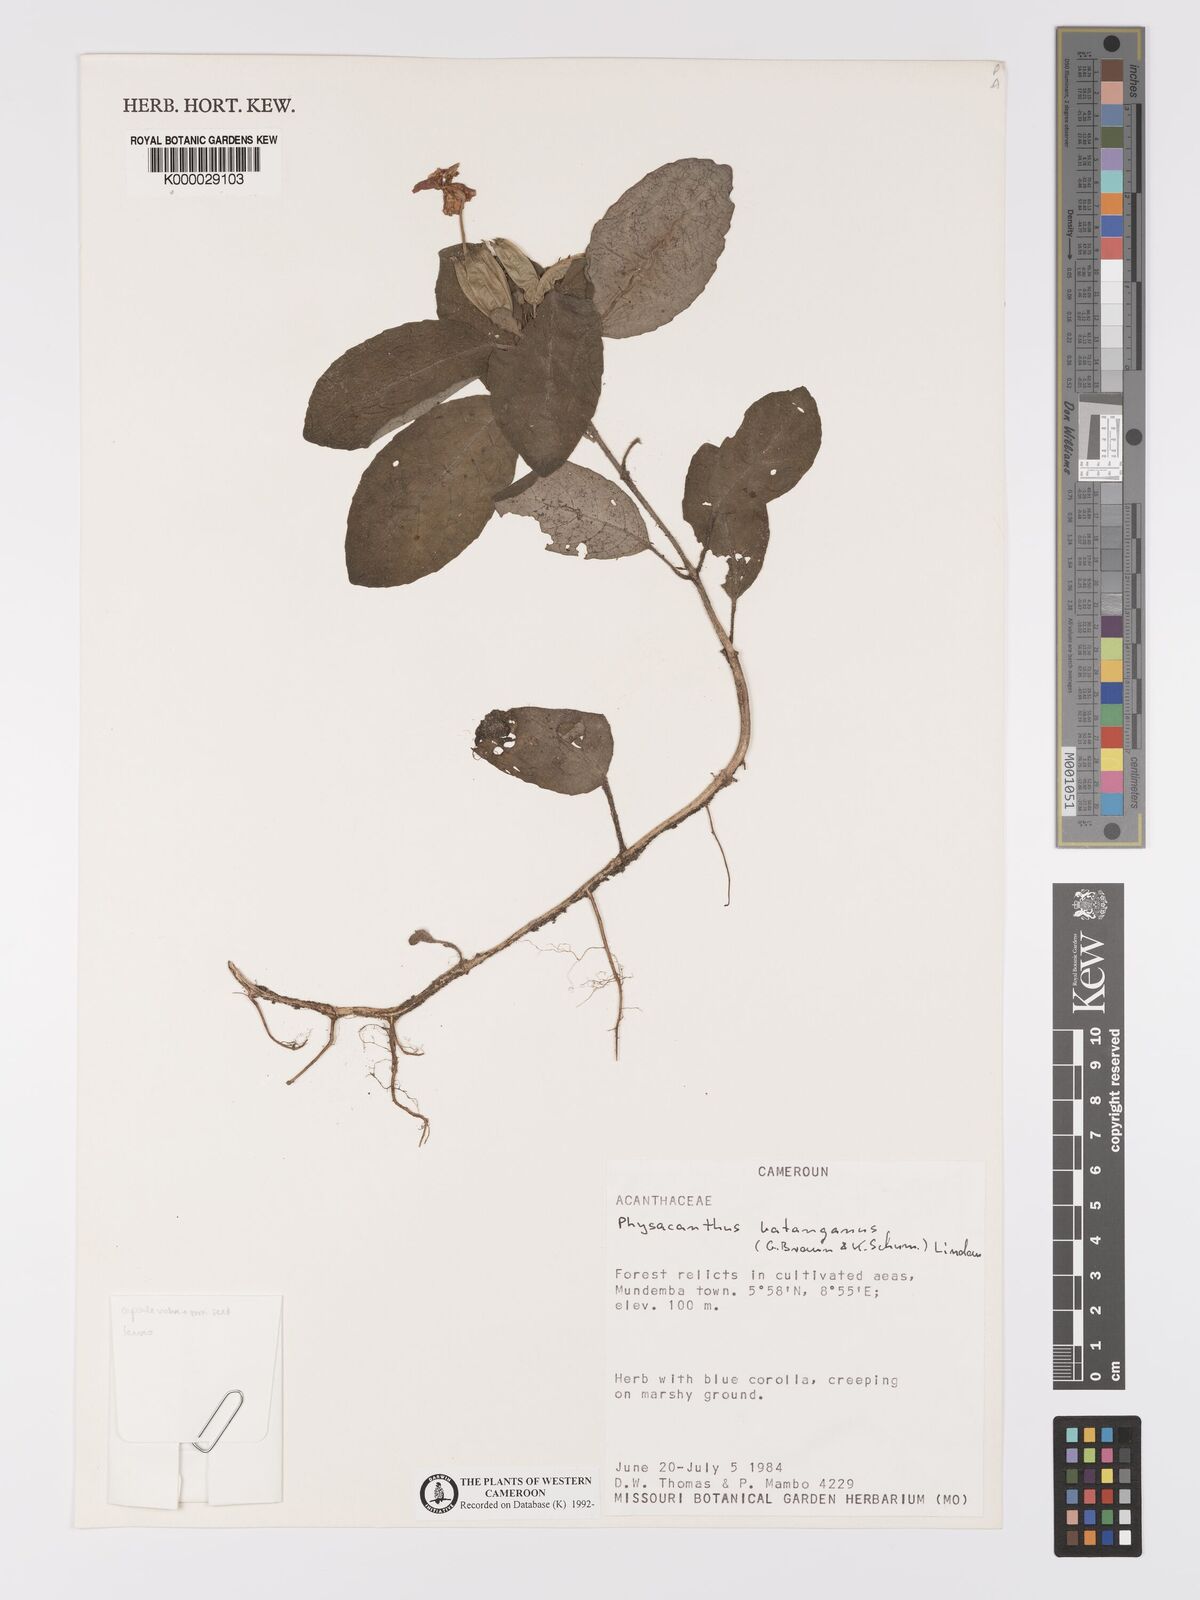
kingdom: Plantae
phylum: Tracheophyta
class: Magnoliopsida
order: Lamiales
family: Acanthaceae
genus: Physacanthus
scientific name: Physacanthus batanganus
